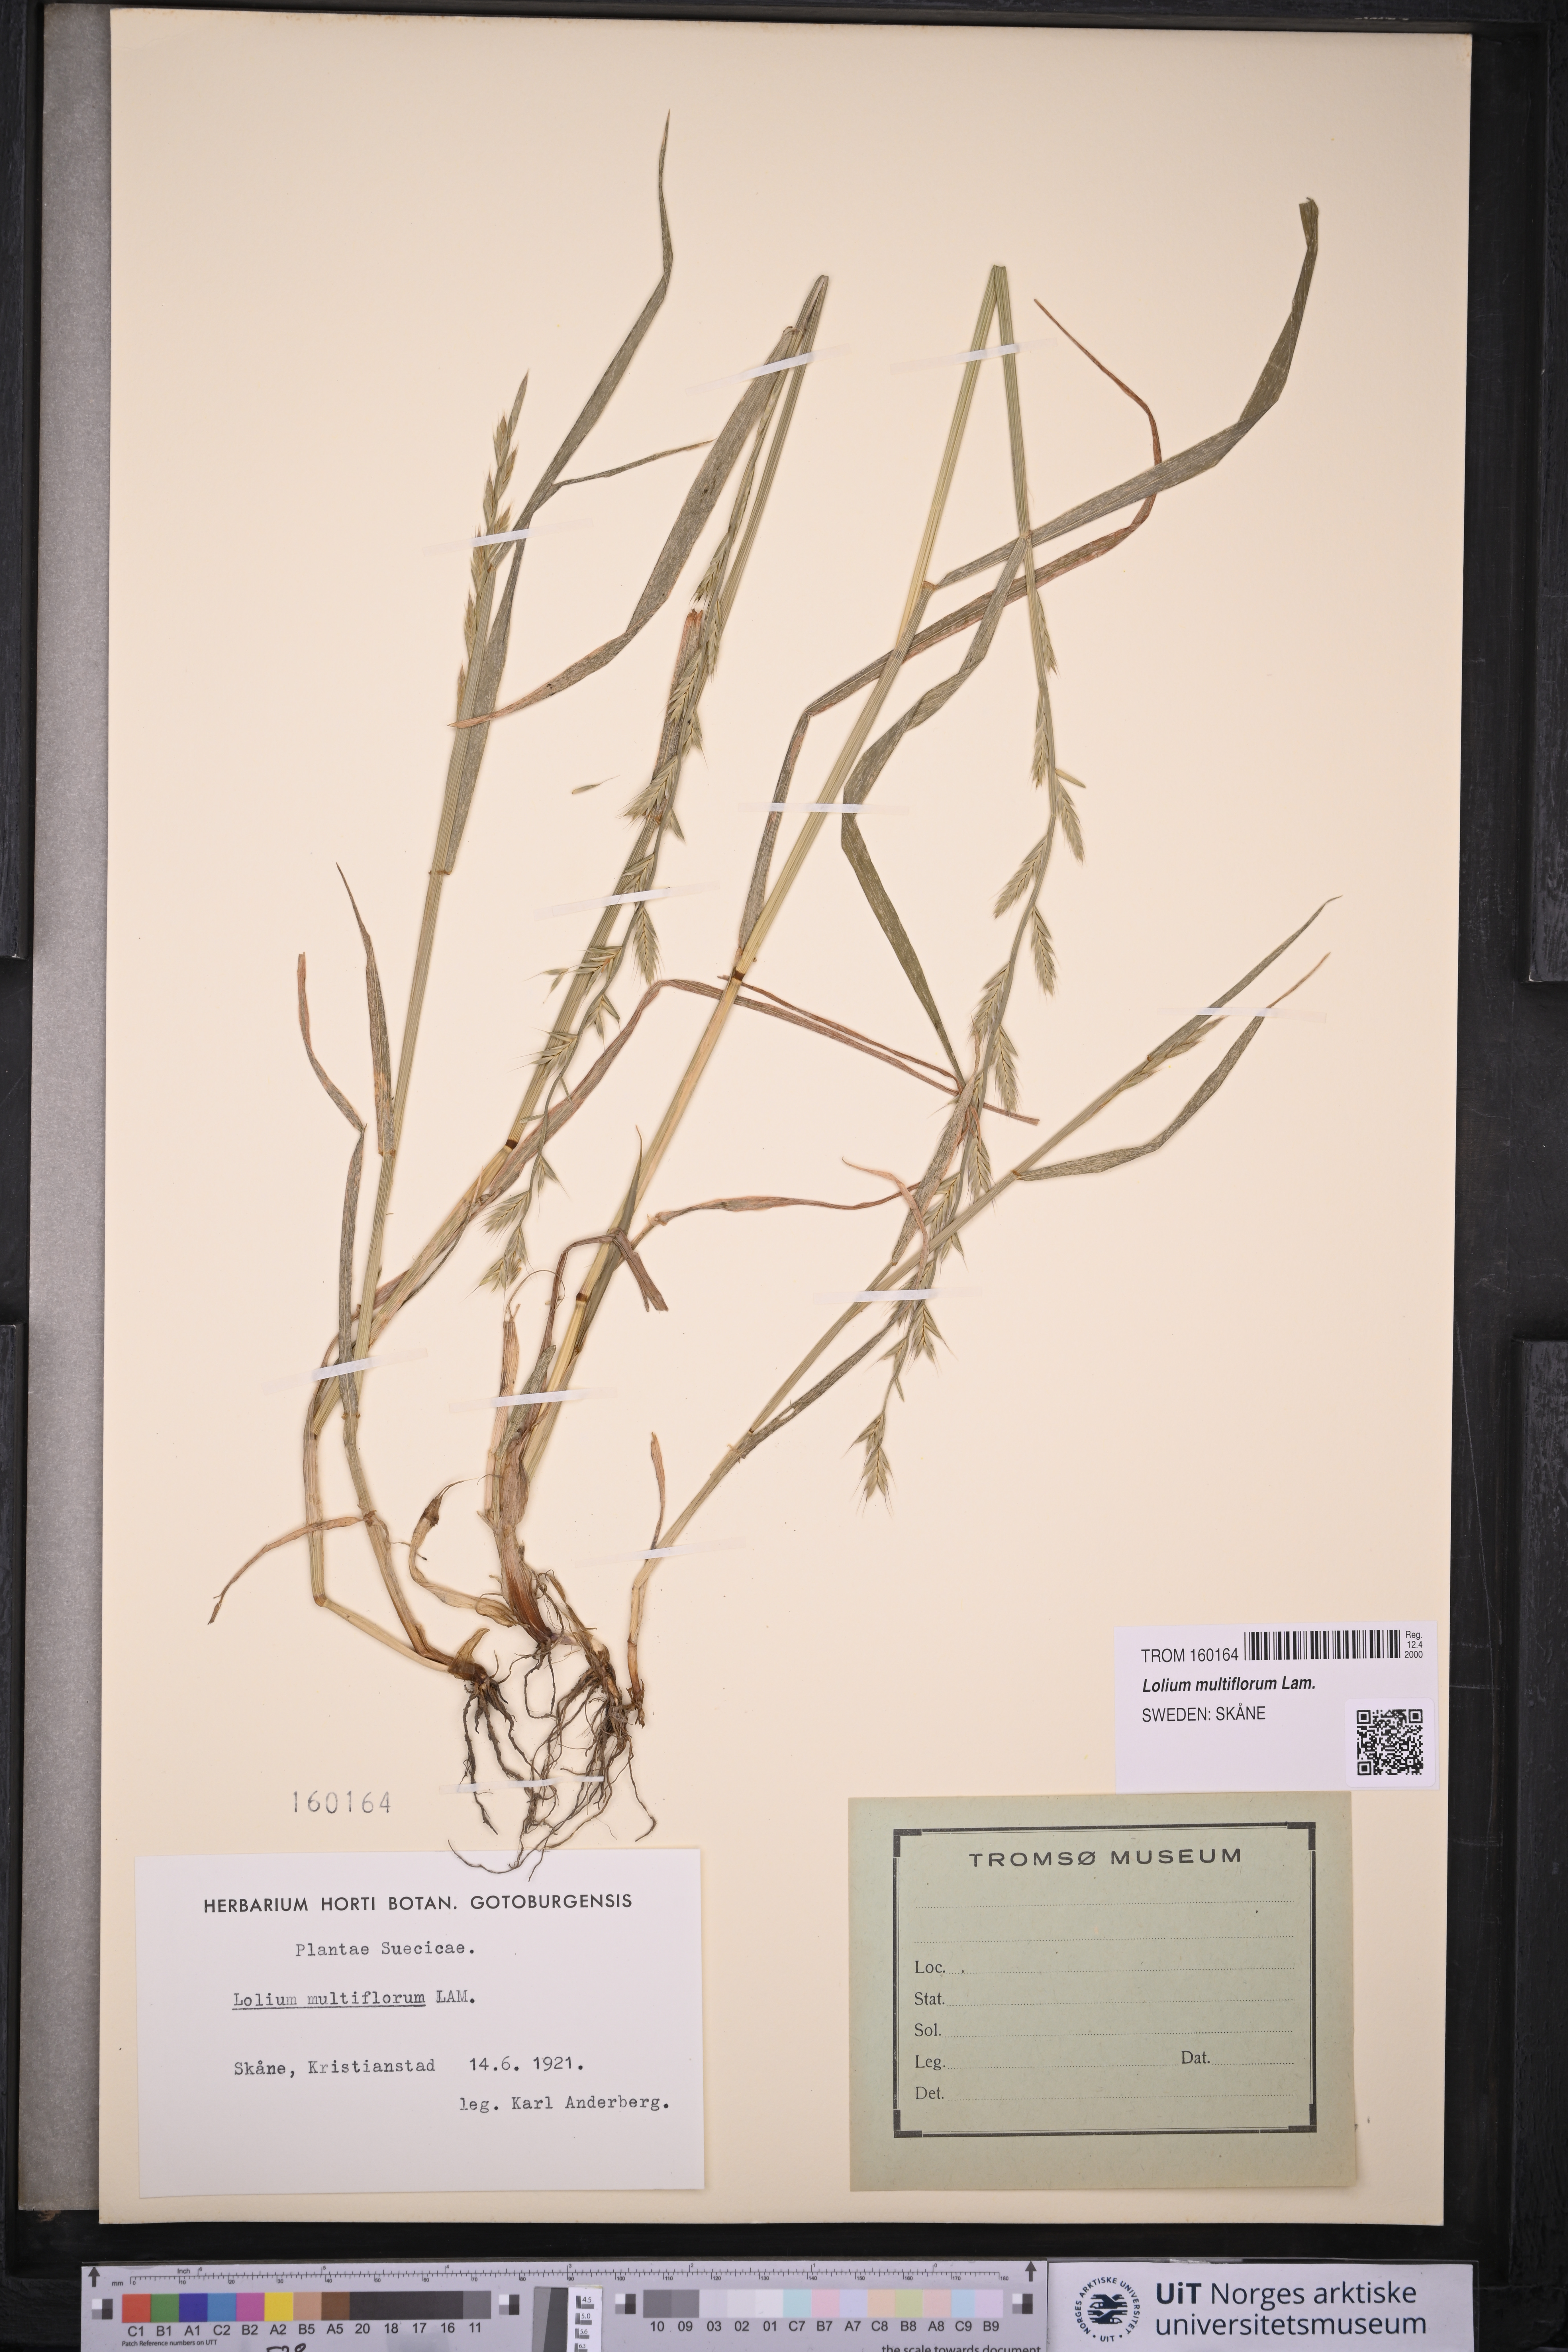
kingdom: Plantae
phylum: Tracheophyta
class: Liliopsida
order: Poales
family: Poaceae
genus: Lolium
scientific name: Lolium multiflorum
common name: Annual ryegrass
